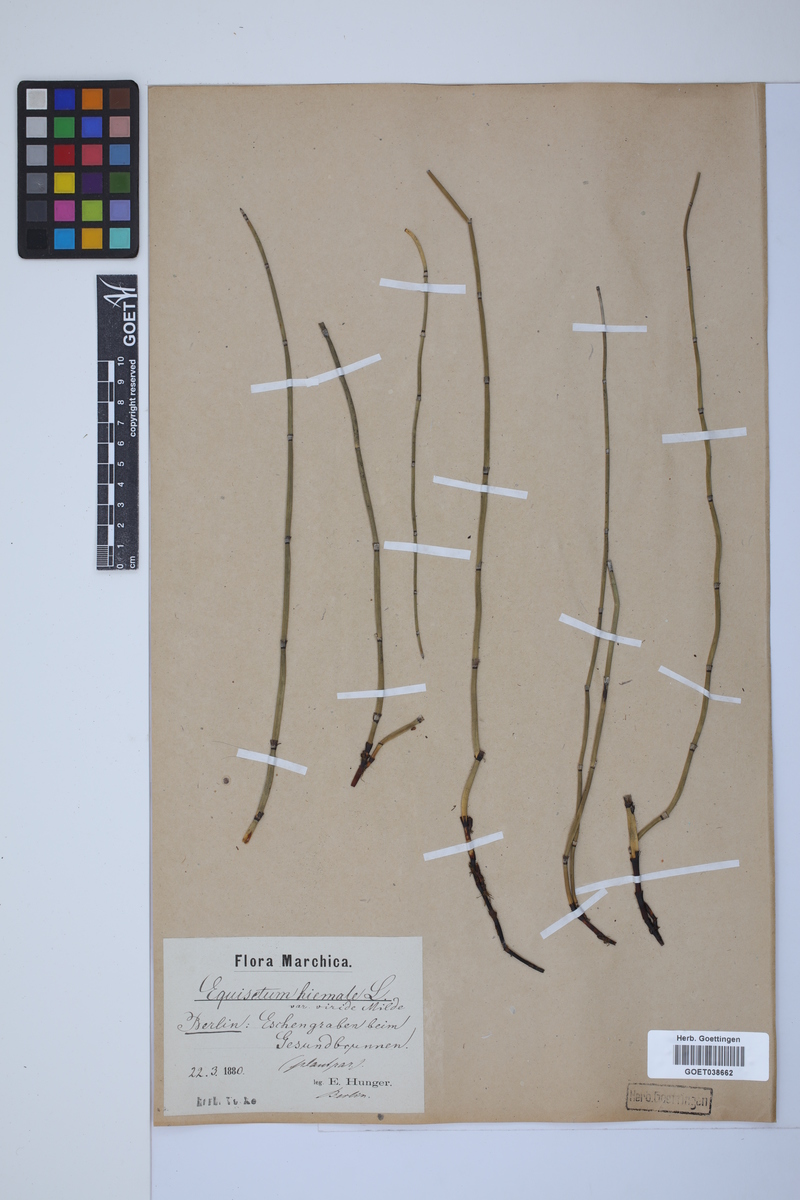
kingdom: Plantae
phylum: Tracheophyta
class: Polypodiopsida
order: Equisetales
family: Equisetaceae
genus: Equisetum
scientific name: Equisetum hyemale
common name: Rough horsetail
